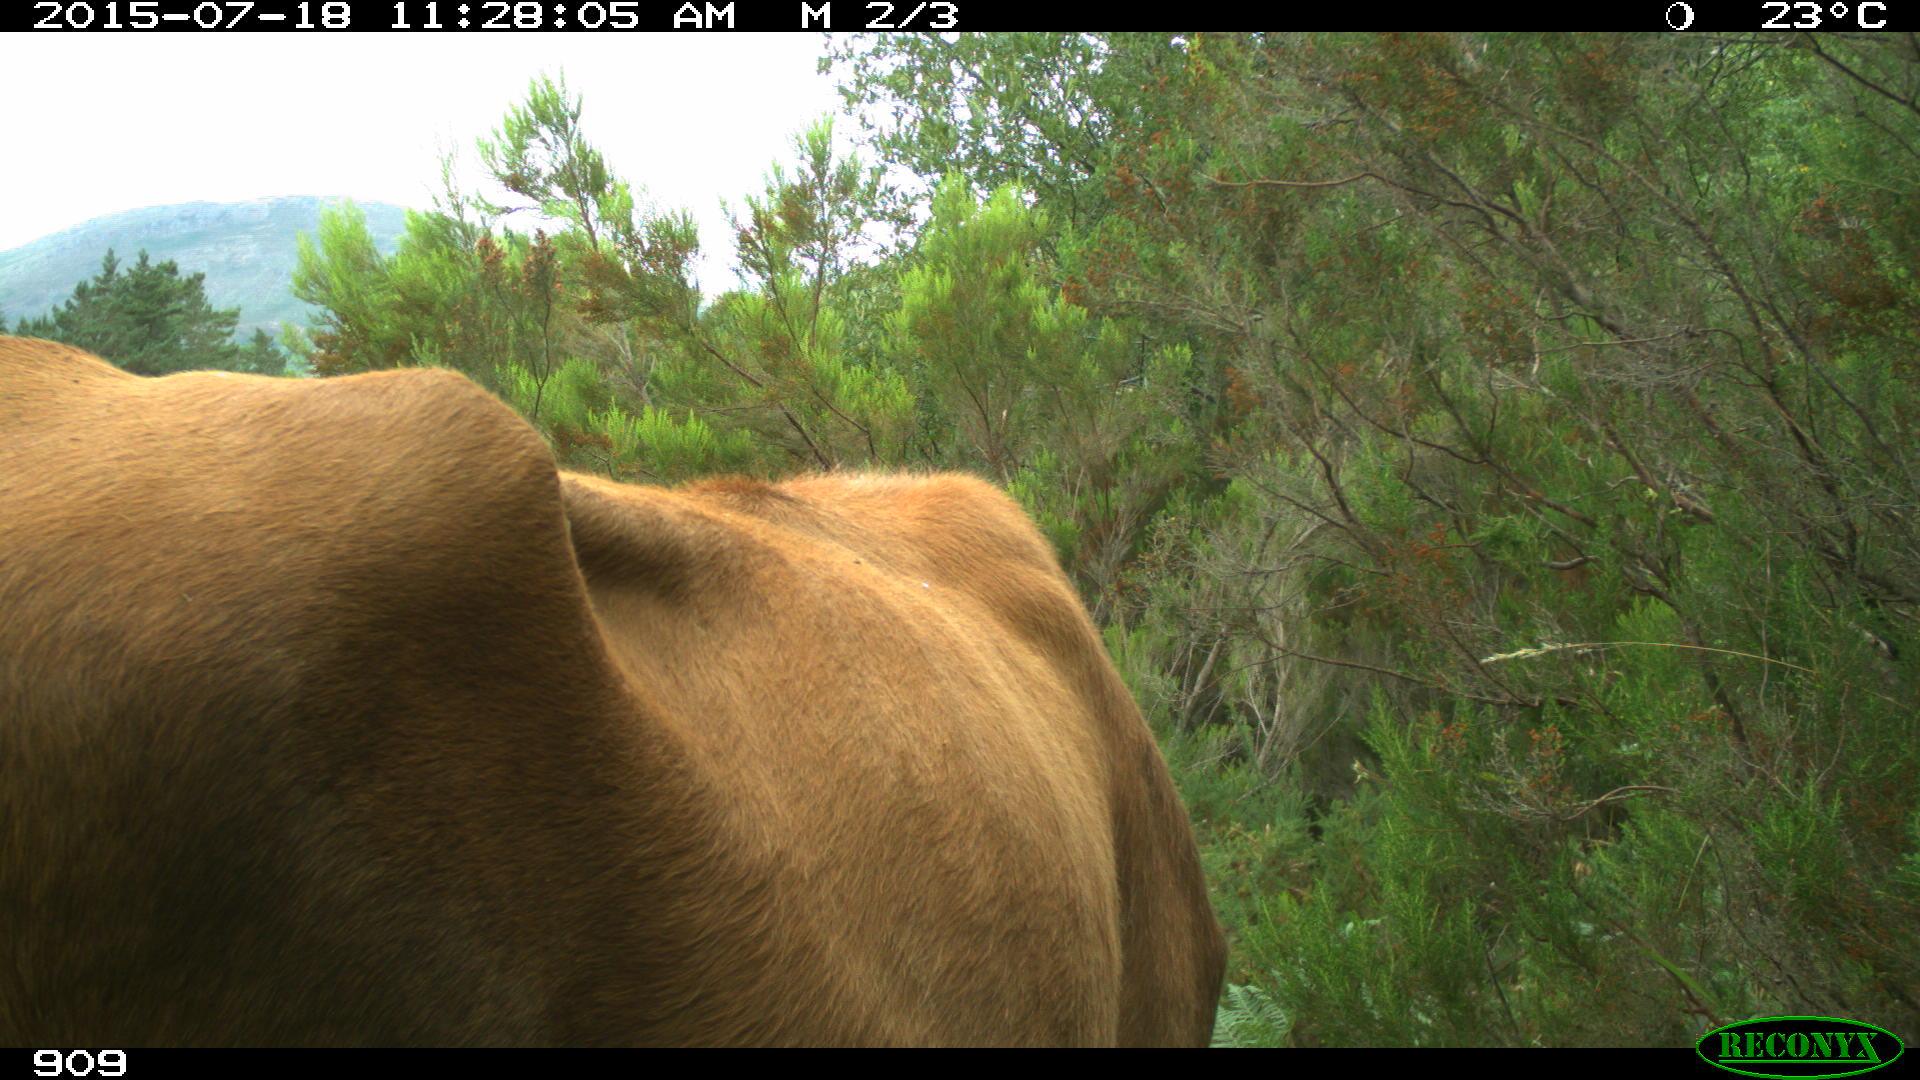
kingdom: Animalia
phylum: Chordata
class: Mammalia
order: Artiodactyla
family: Bovidae
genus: Bos
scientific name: Bos taurus
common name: Domesticated cattle
